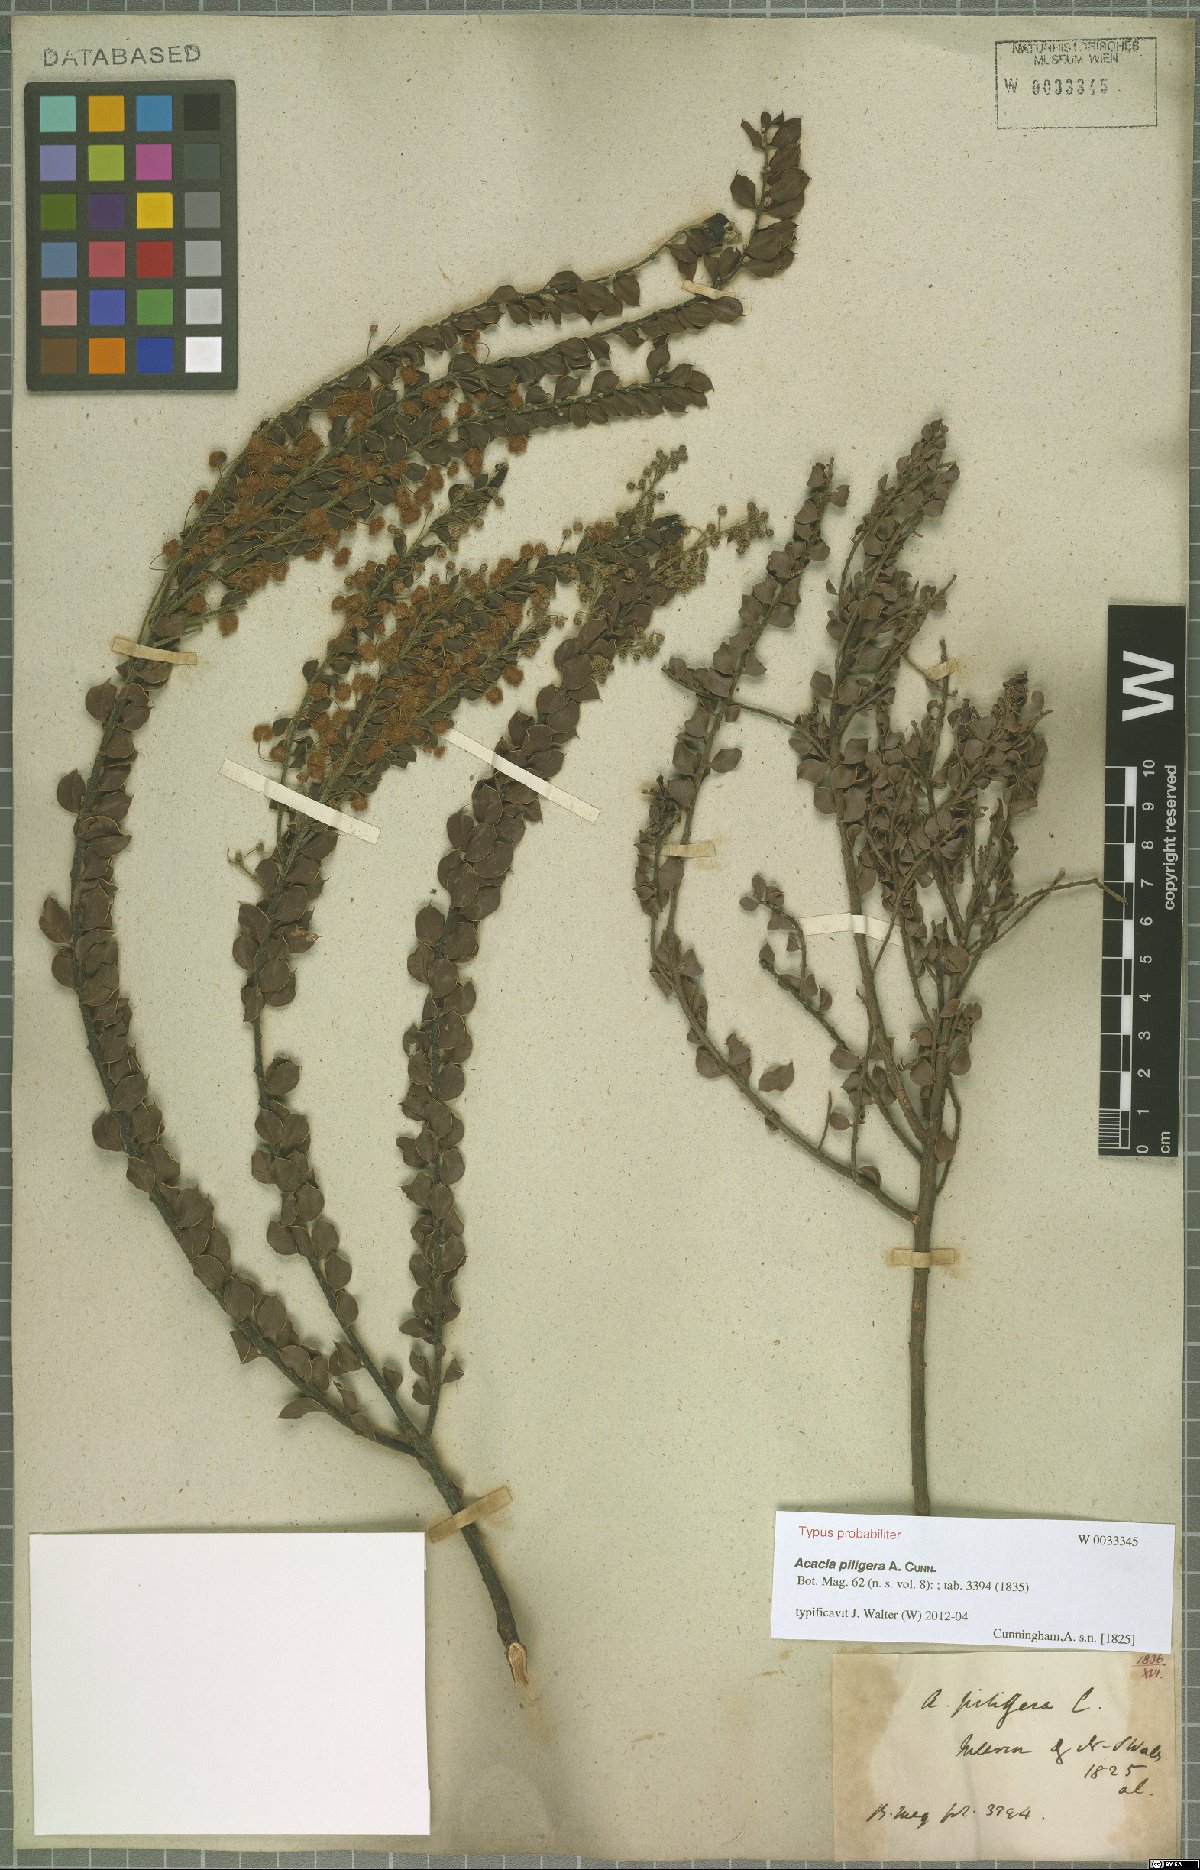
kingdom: Plantae
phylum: Tracheophyta
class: Magnoliopsida
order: Fabales
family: Fabaceae
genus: Acacia
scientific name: Acacia piligera
